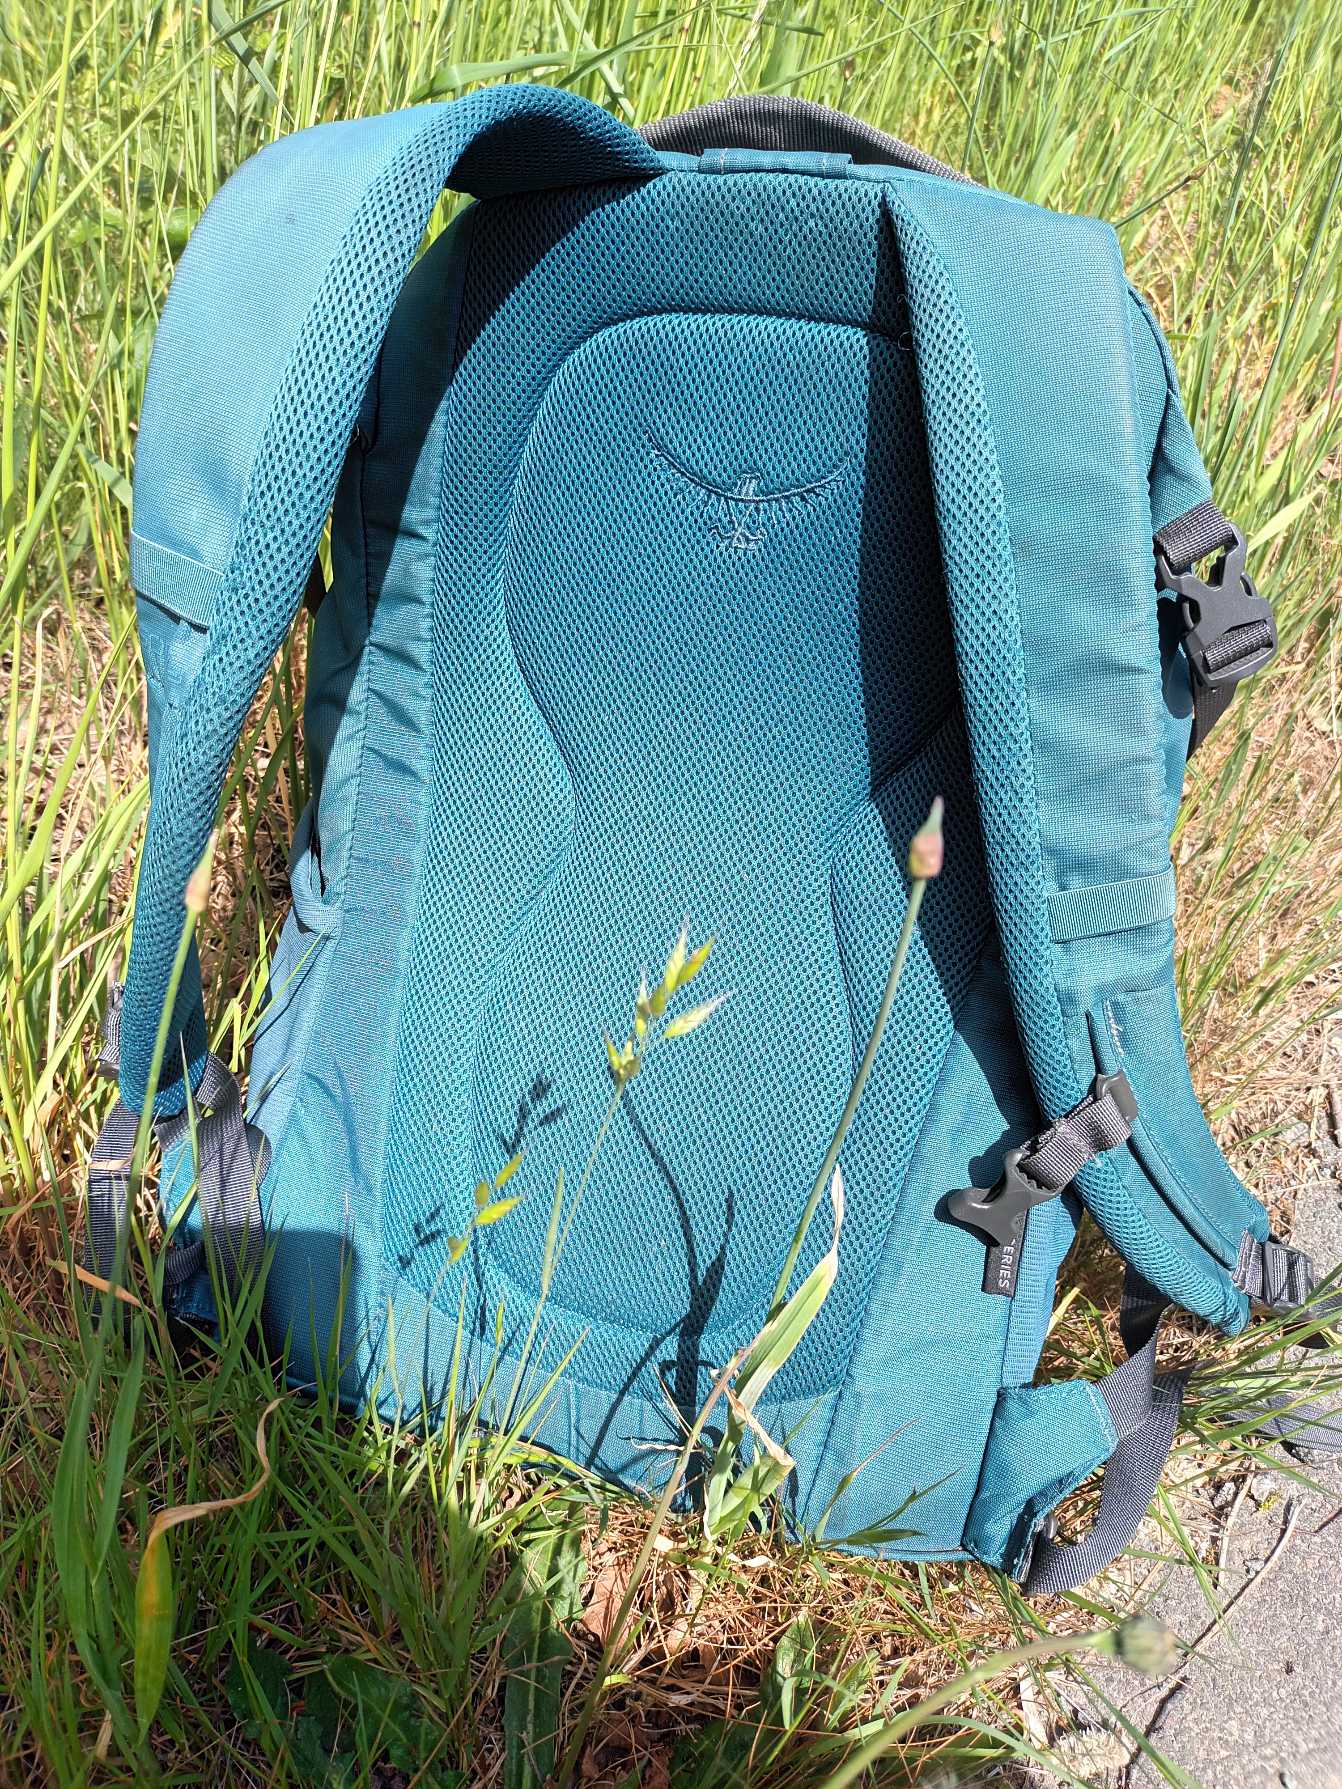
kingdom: Plantae
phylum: Tracheophyta
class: Liliopsida
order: Asparagales
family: Amaryllidaceae
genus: Allium
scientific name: Allium scorodoprasum
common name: Skov-løg
